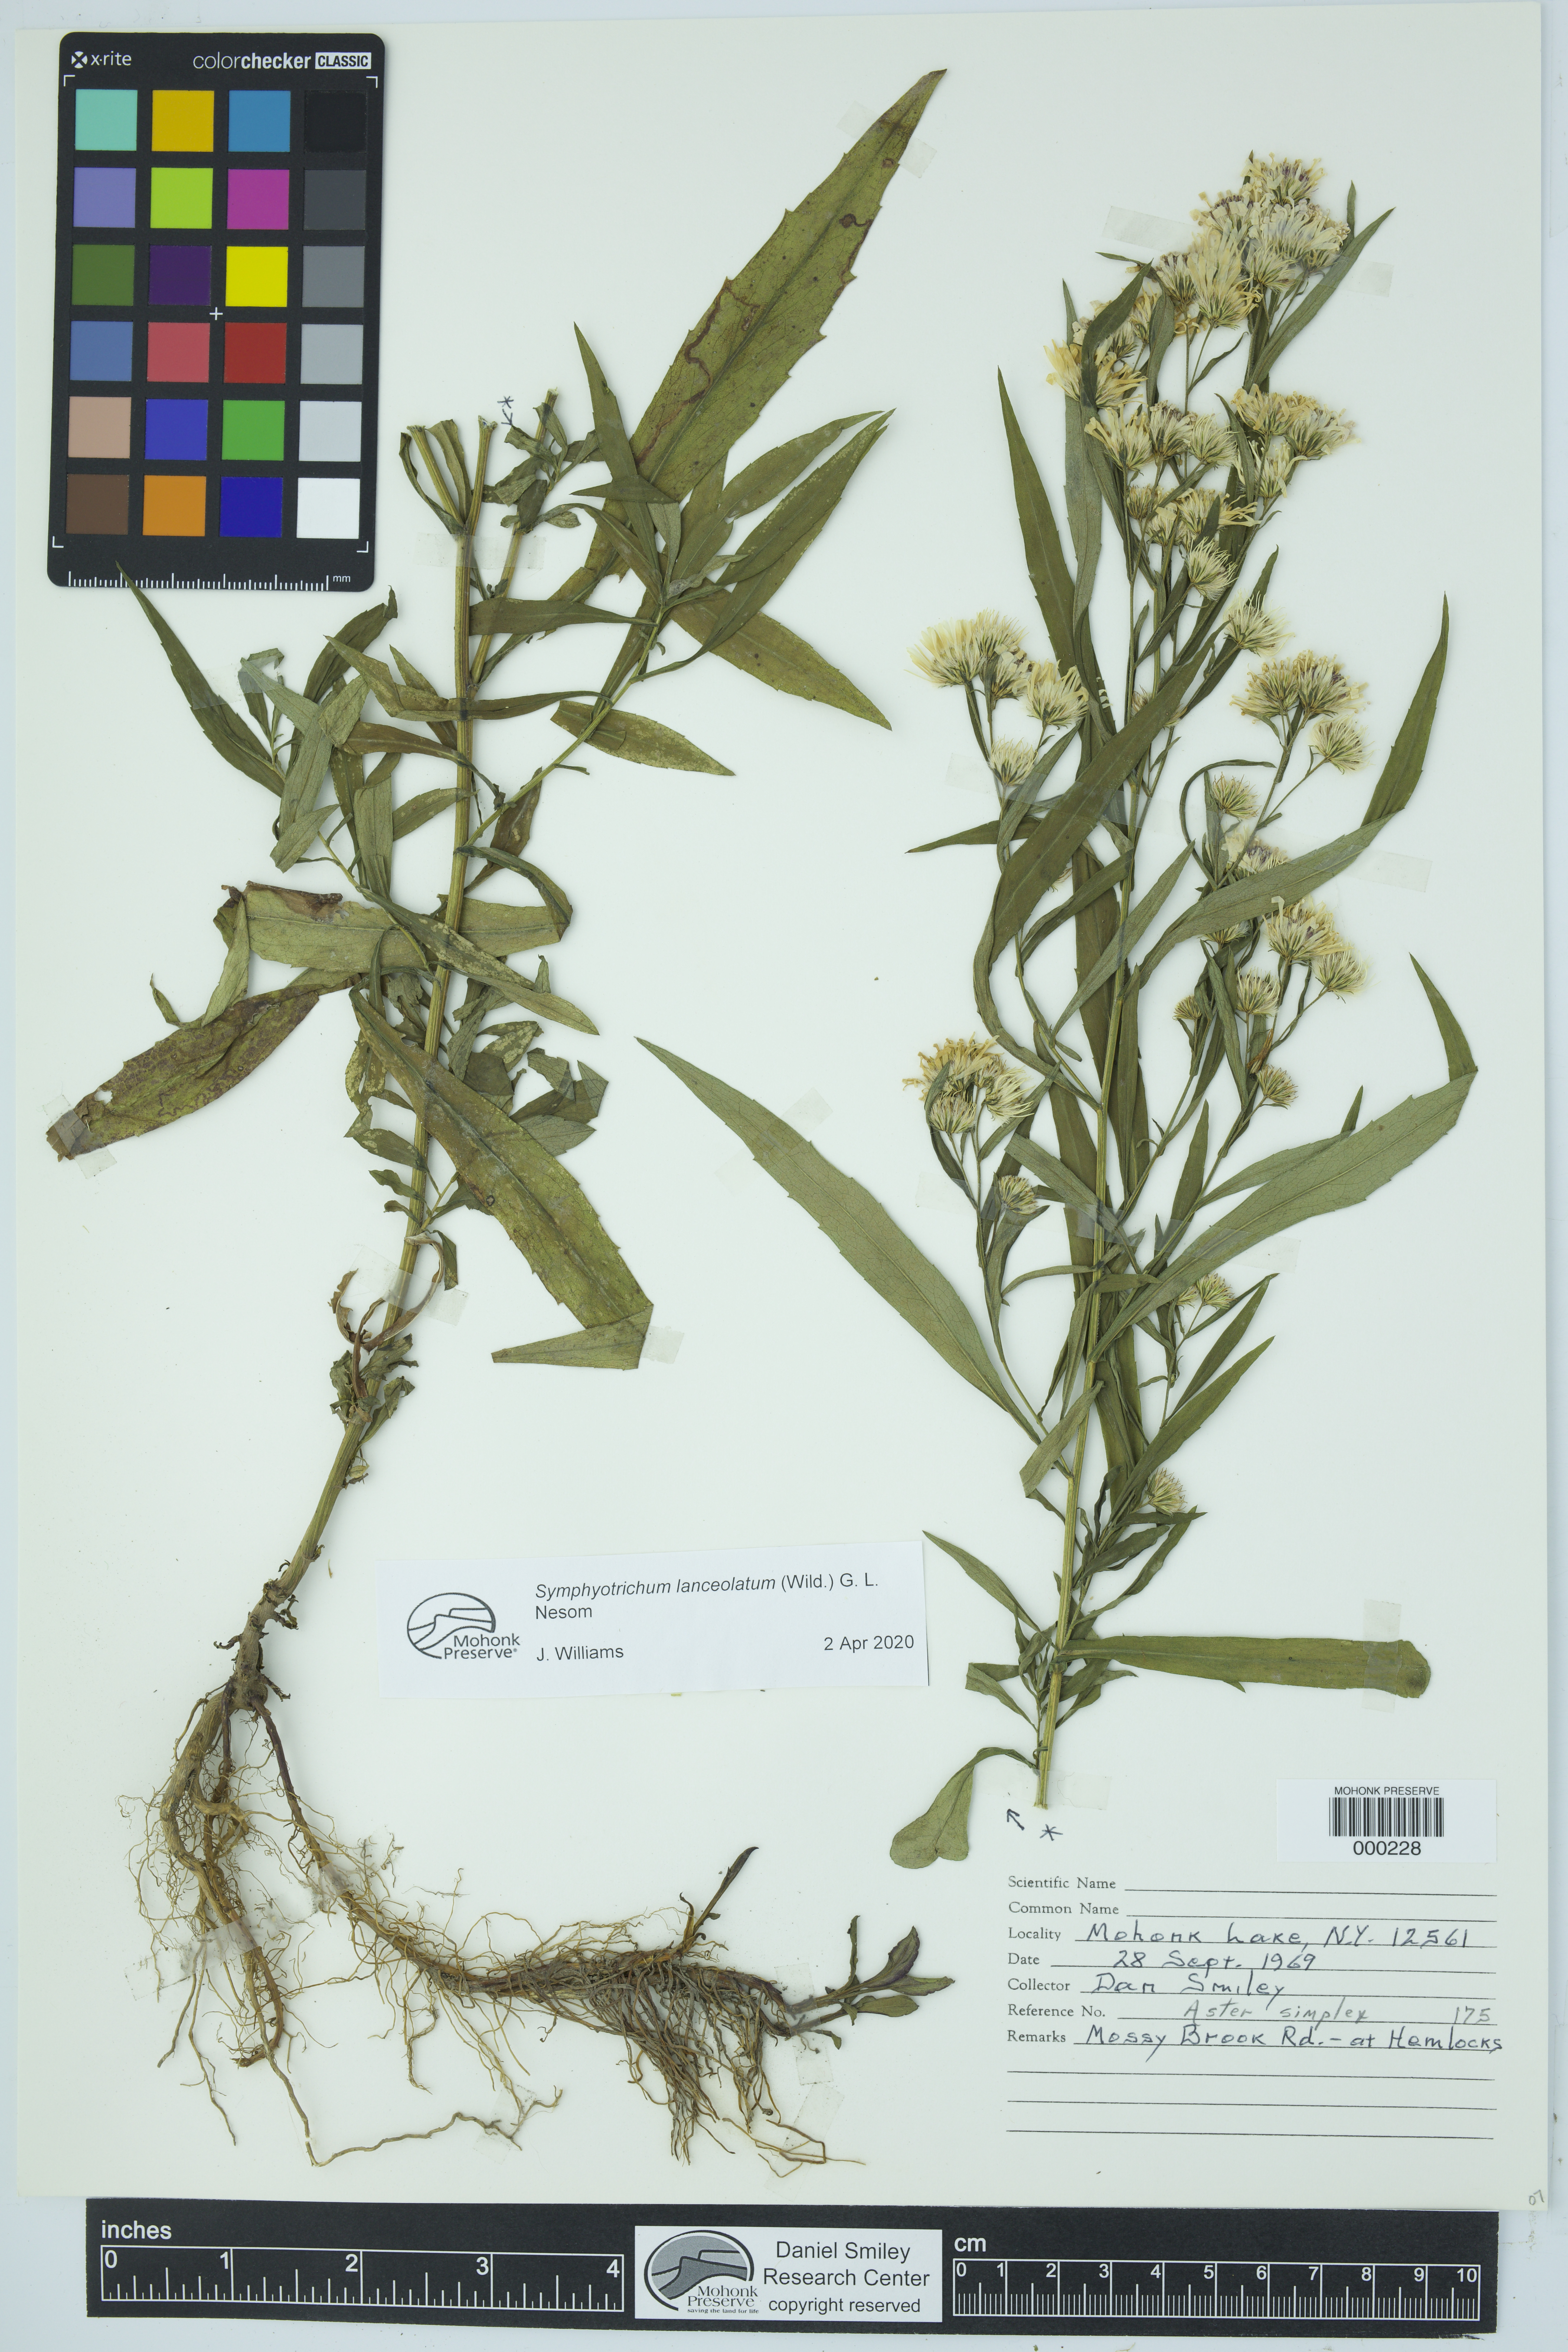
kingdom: Plantae
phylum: Tracheophyta
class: Magnoliopsida
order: Asterales
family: Asteraceae
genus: Symphyotrichum
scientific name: Symphyotrichum lanceolatum
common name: Panicled aster
